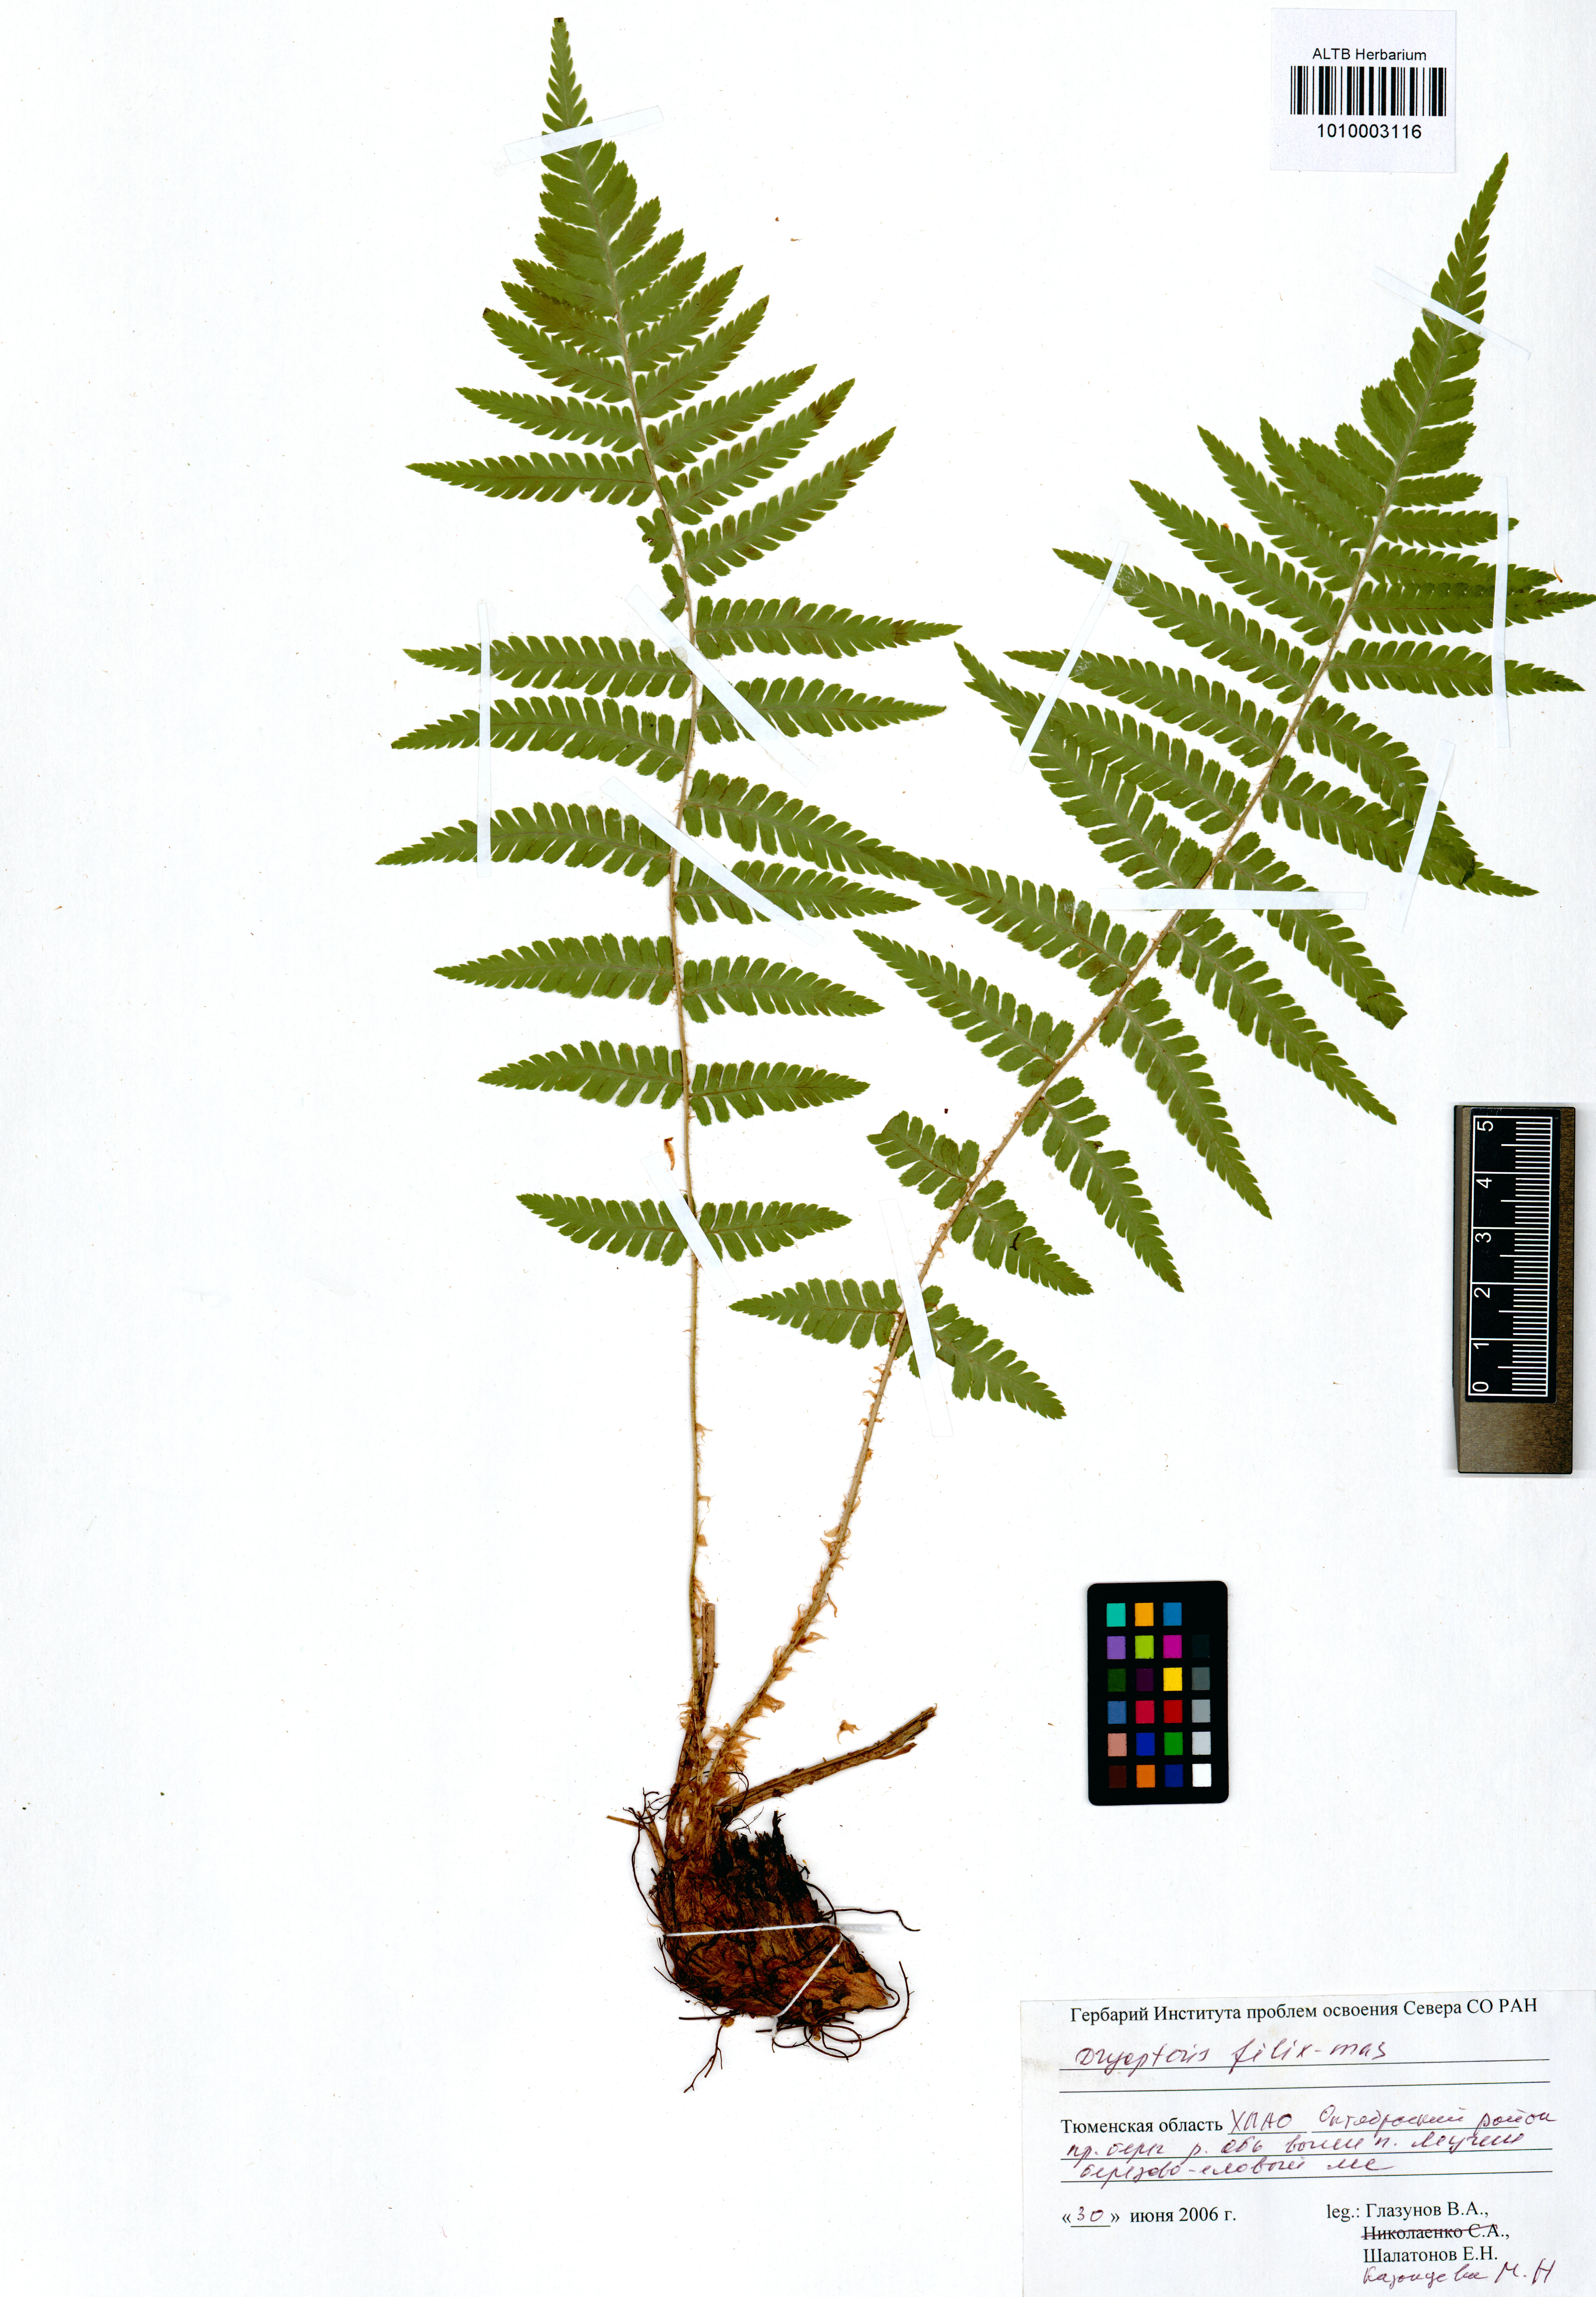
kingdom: Plantae
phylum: Tracheophyta
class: Polypodiopsida
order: Polypodiales
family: Dryopteridaceae
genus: Dryopteris
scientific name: Dryopteris filix-mas
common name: Male fern
